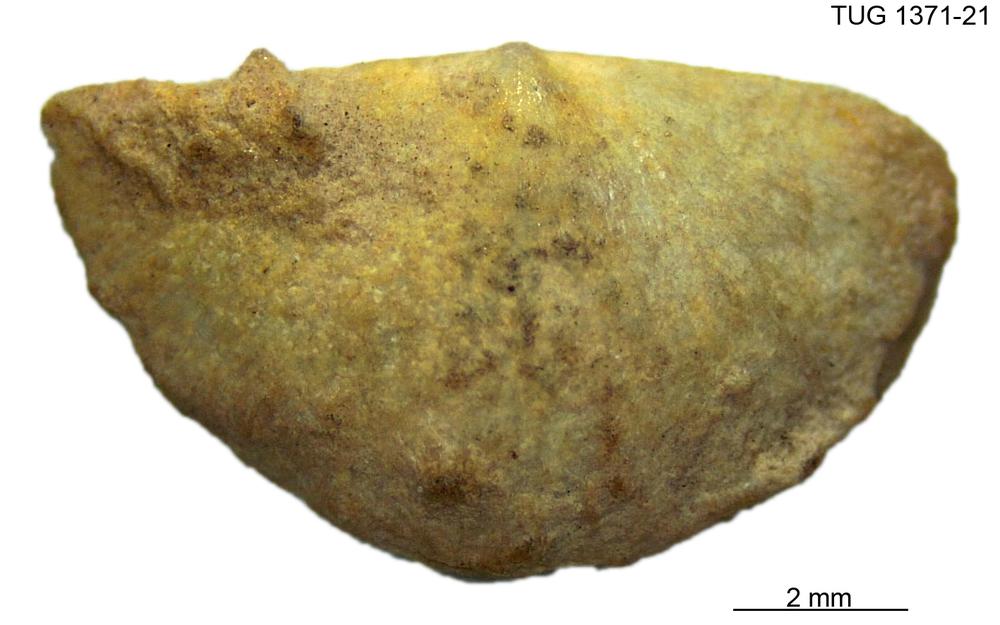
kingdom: Animalia
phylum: Brachiopoda
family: Sowerbyellidae
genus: Eochonetes
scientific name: Eochonetes
